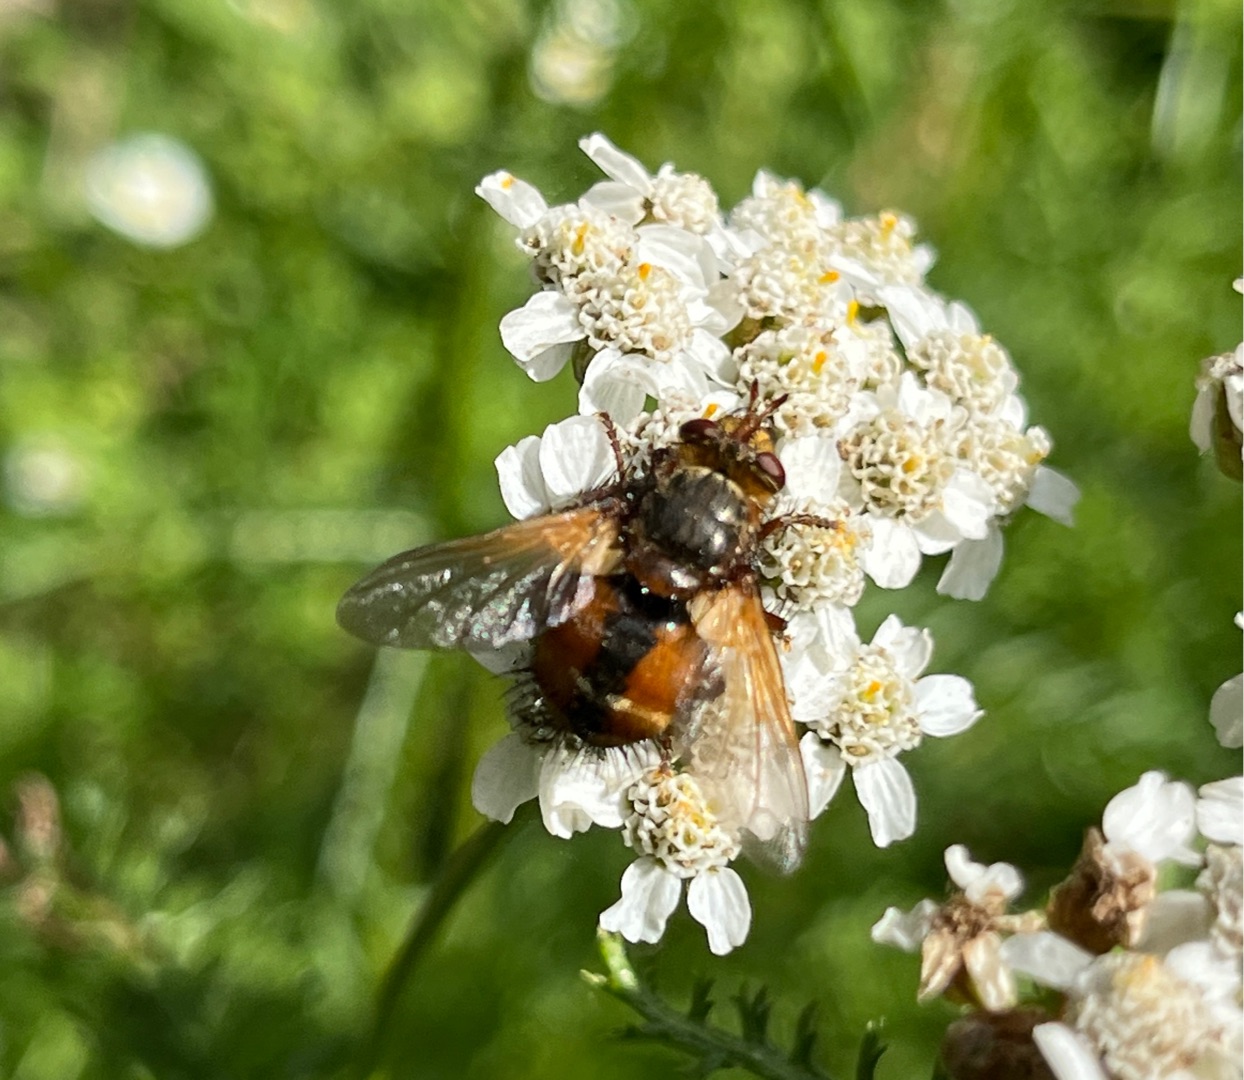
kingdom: Animalia
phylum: Arthropoda
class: Insecta
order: Diptera
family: Tachinidae
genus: Tachina
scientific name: Tachina fera
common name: Mellemfluen oskar
